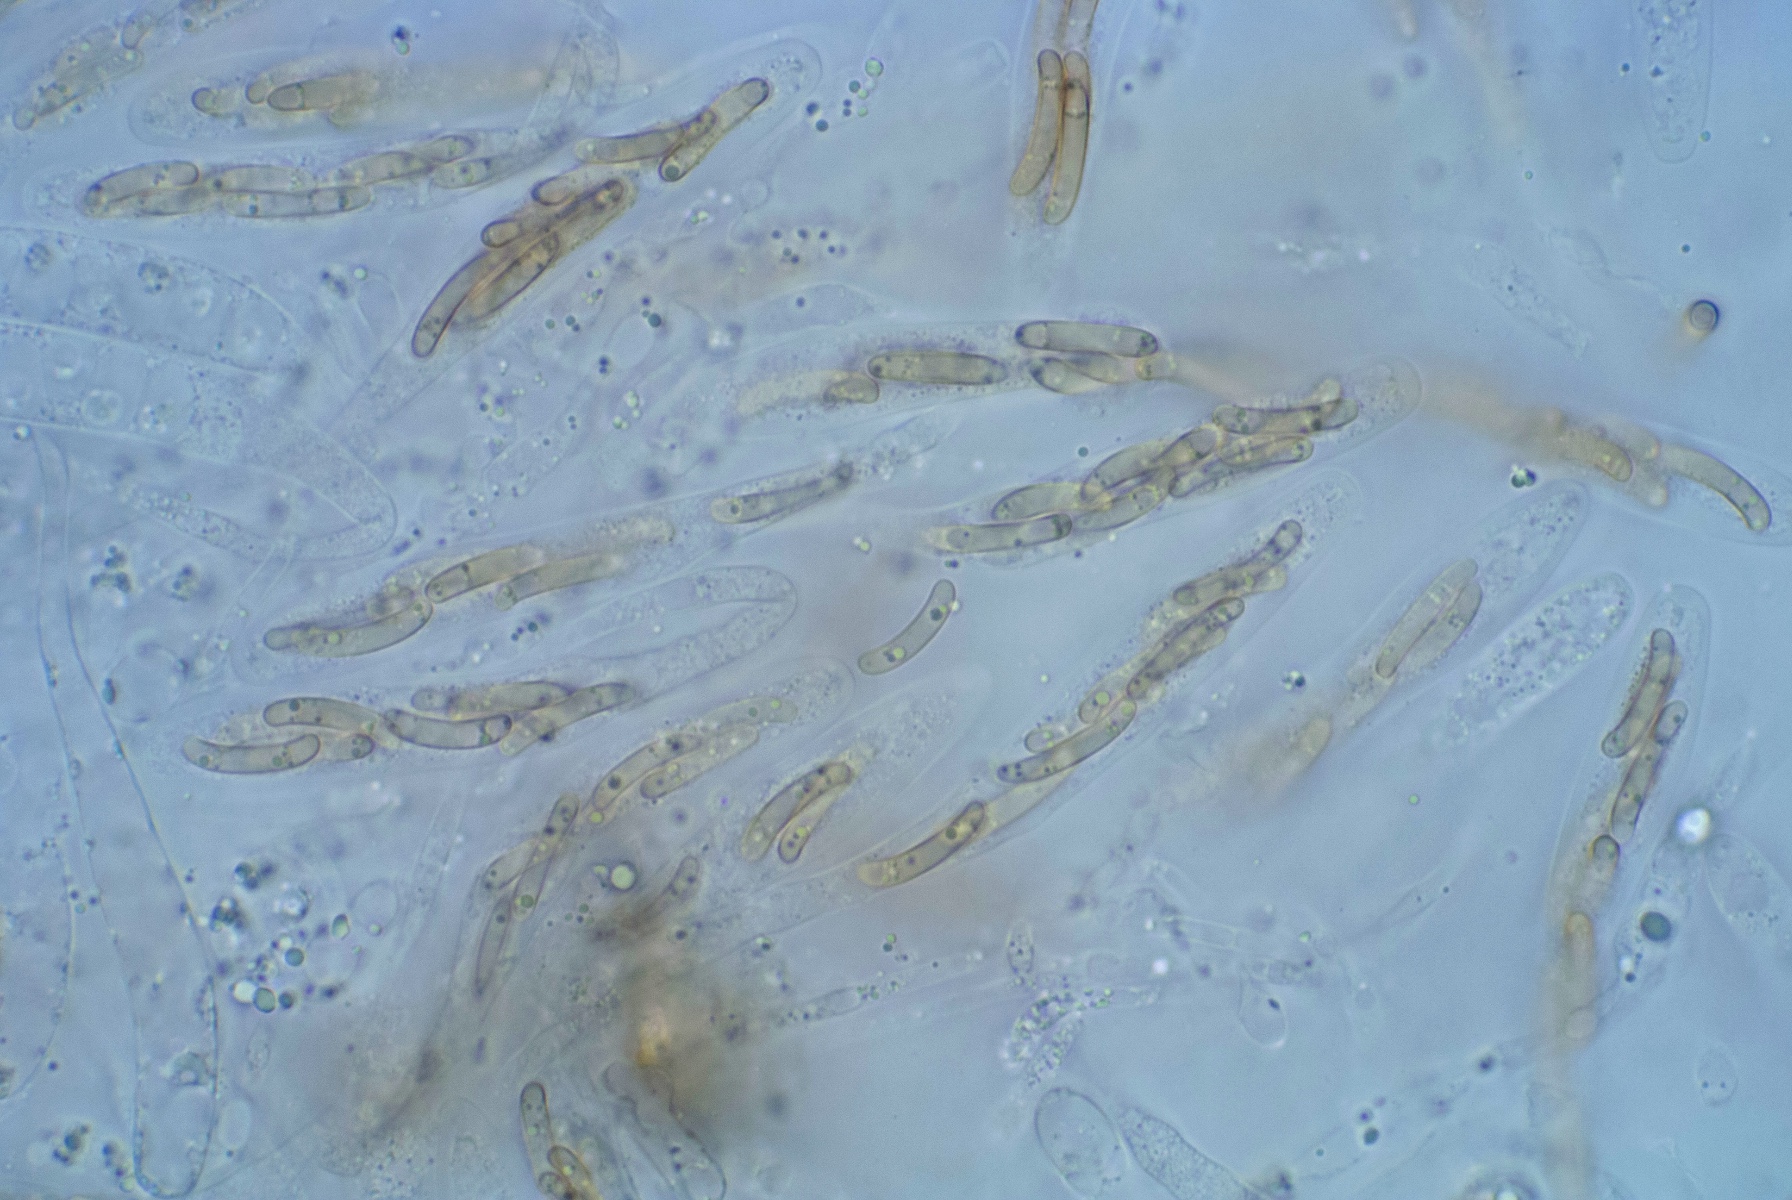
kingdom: Fungi
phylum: Ascomycota
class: Sordariomycetes
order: Xylariales
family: Diatrypaceae
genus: Cryptosphaeria
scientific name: Cryptosphaeria eunomia
